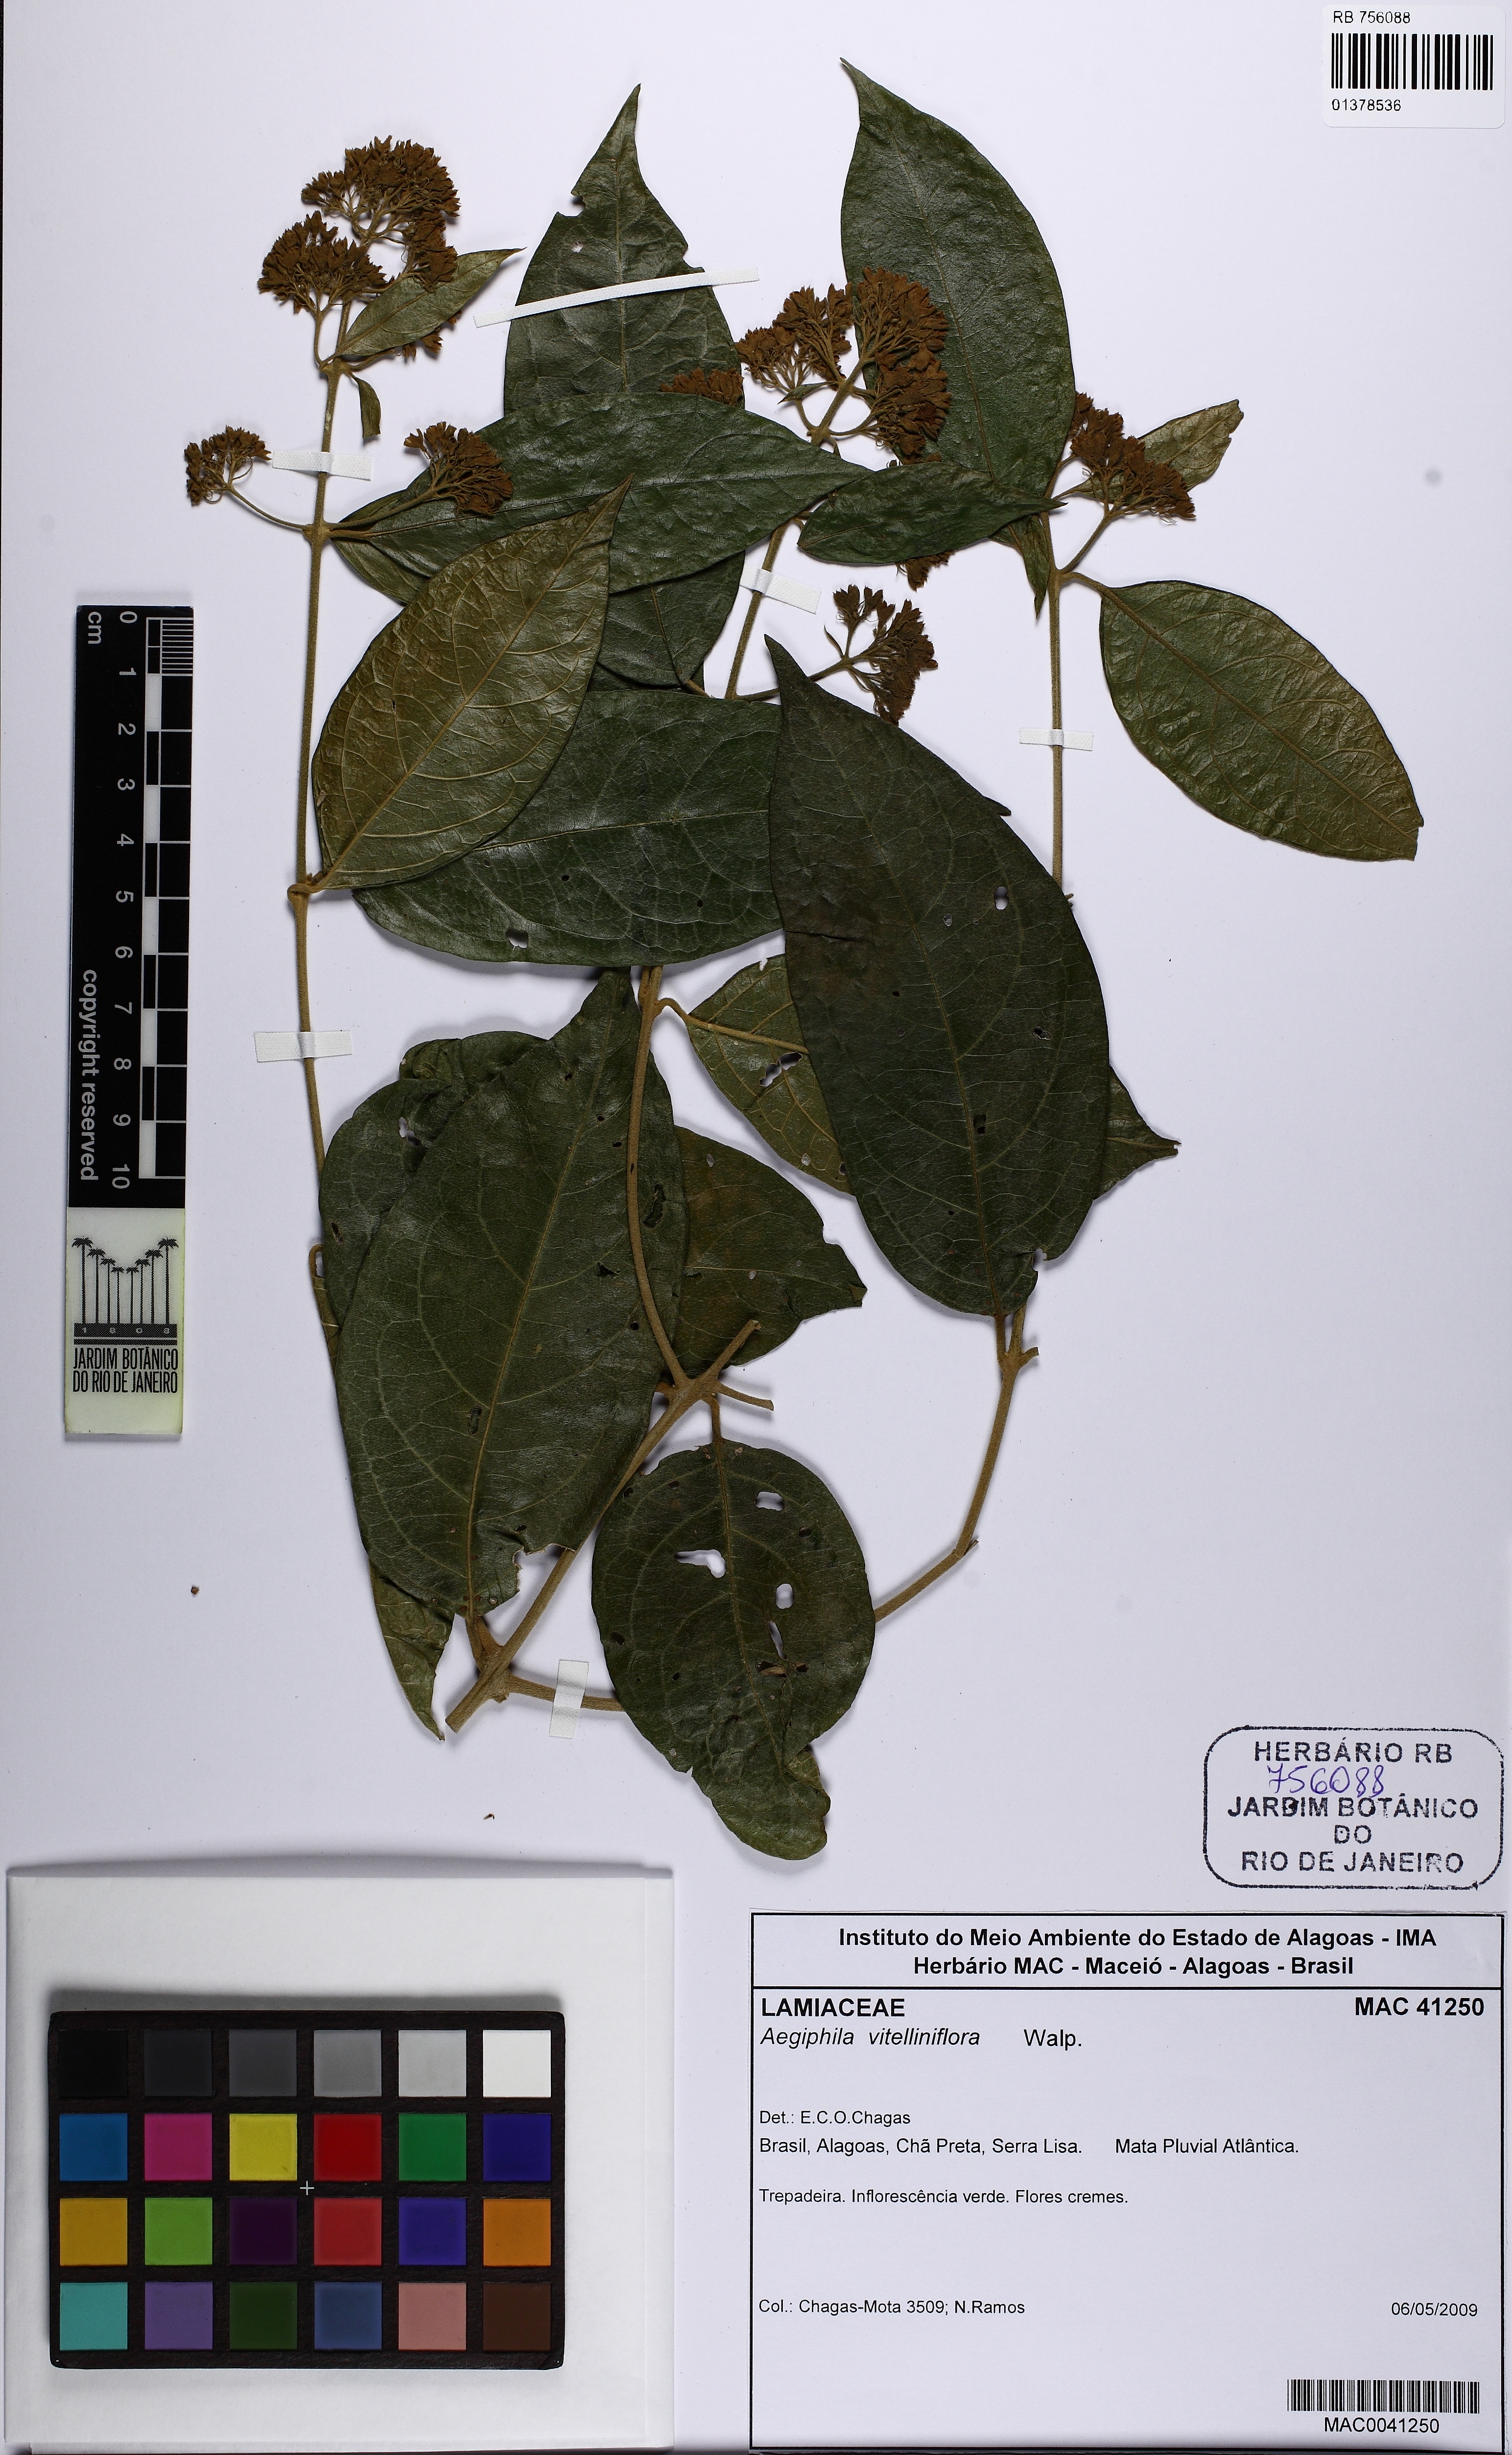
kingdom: Plantae
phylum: Tracheophyta
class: Magnoliopsida
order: Lamiales
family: Lamiaceae
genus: Aegiphila
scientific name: Aegiphila vitelliniflora
